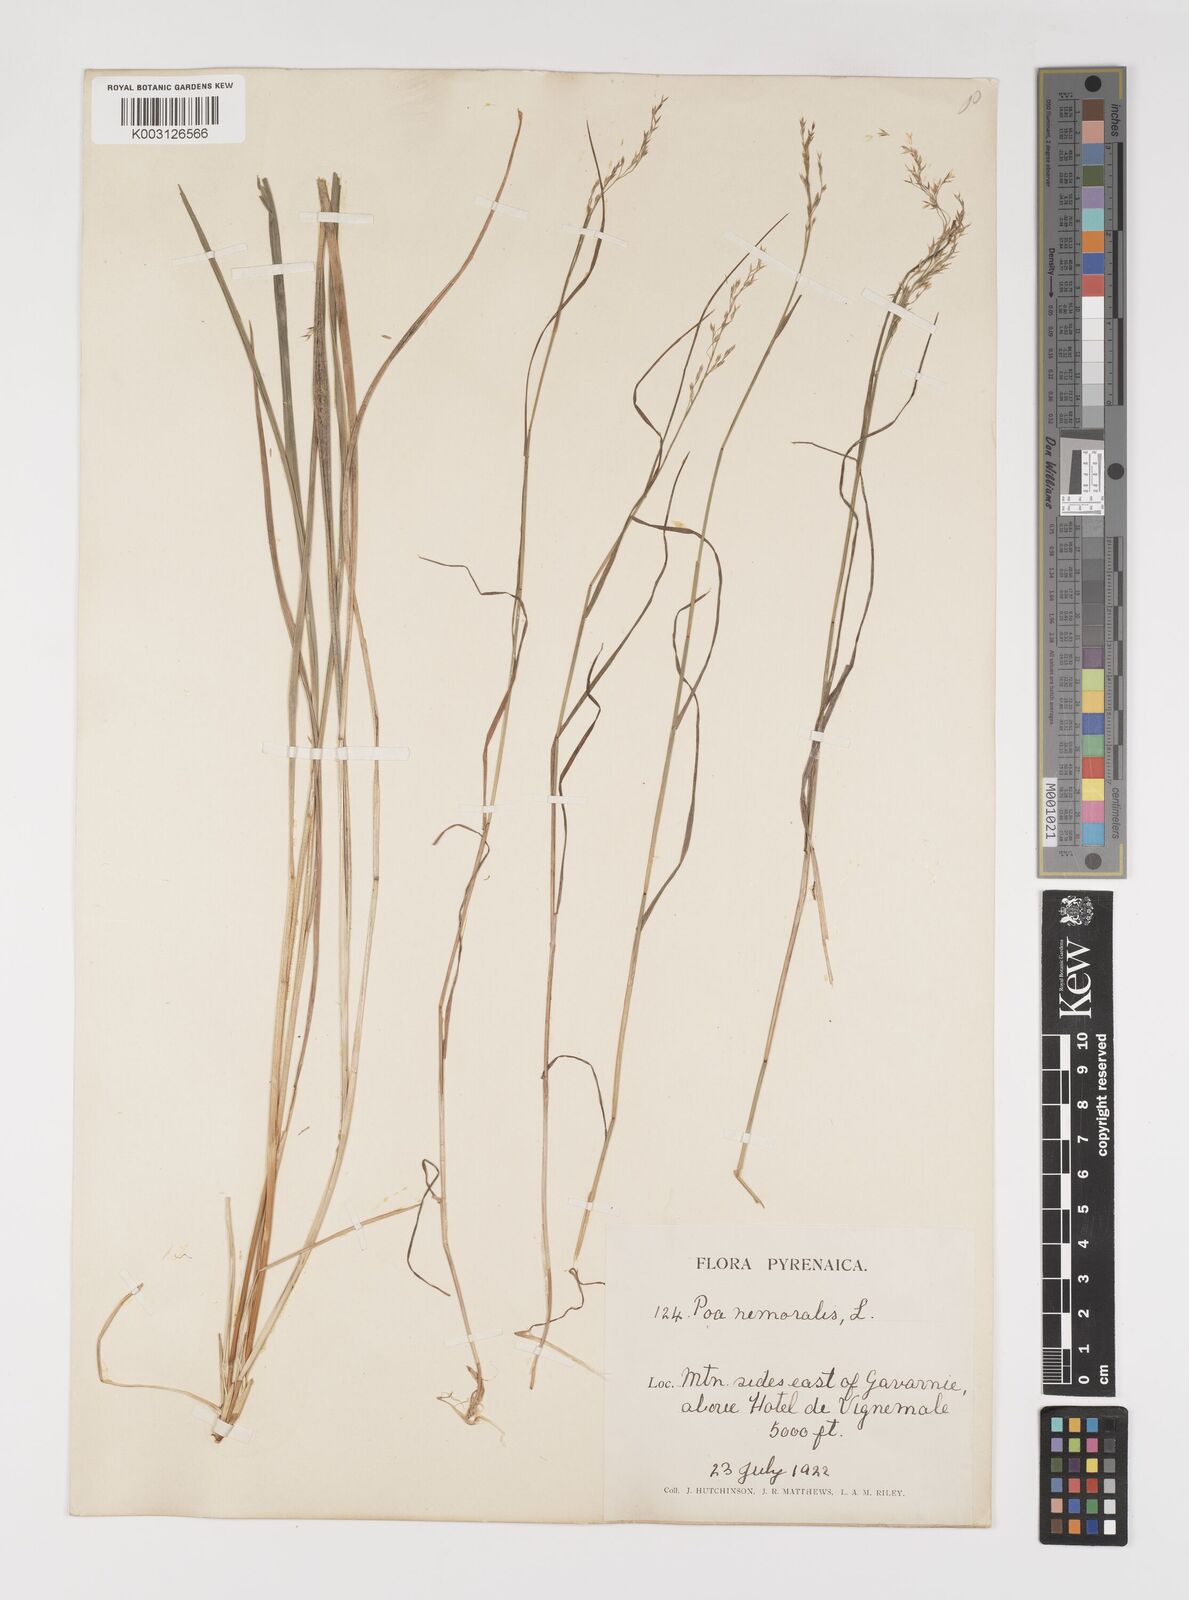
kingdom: Plantae
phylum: Tracheophyta
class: Liliopsida
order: Poales
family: Poaceae
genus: Poa
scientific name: Poa nemoralis
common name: Wood bluegrass
